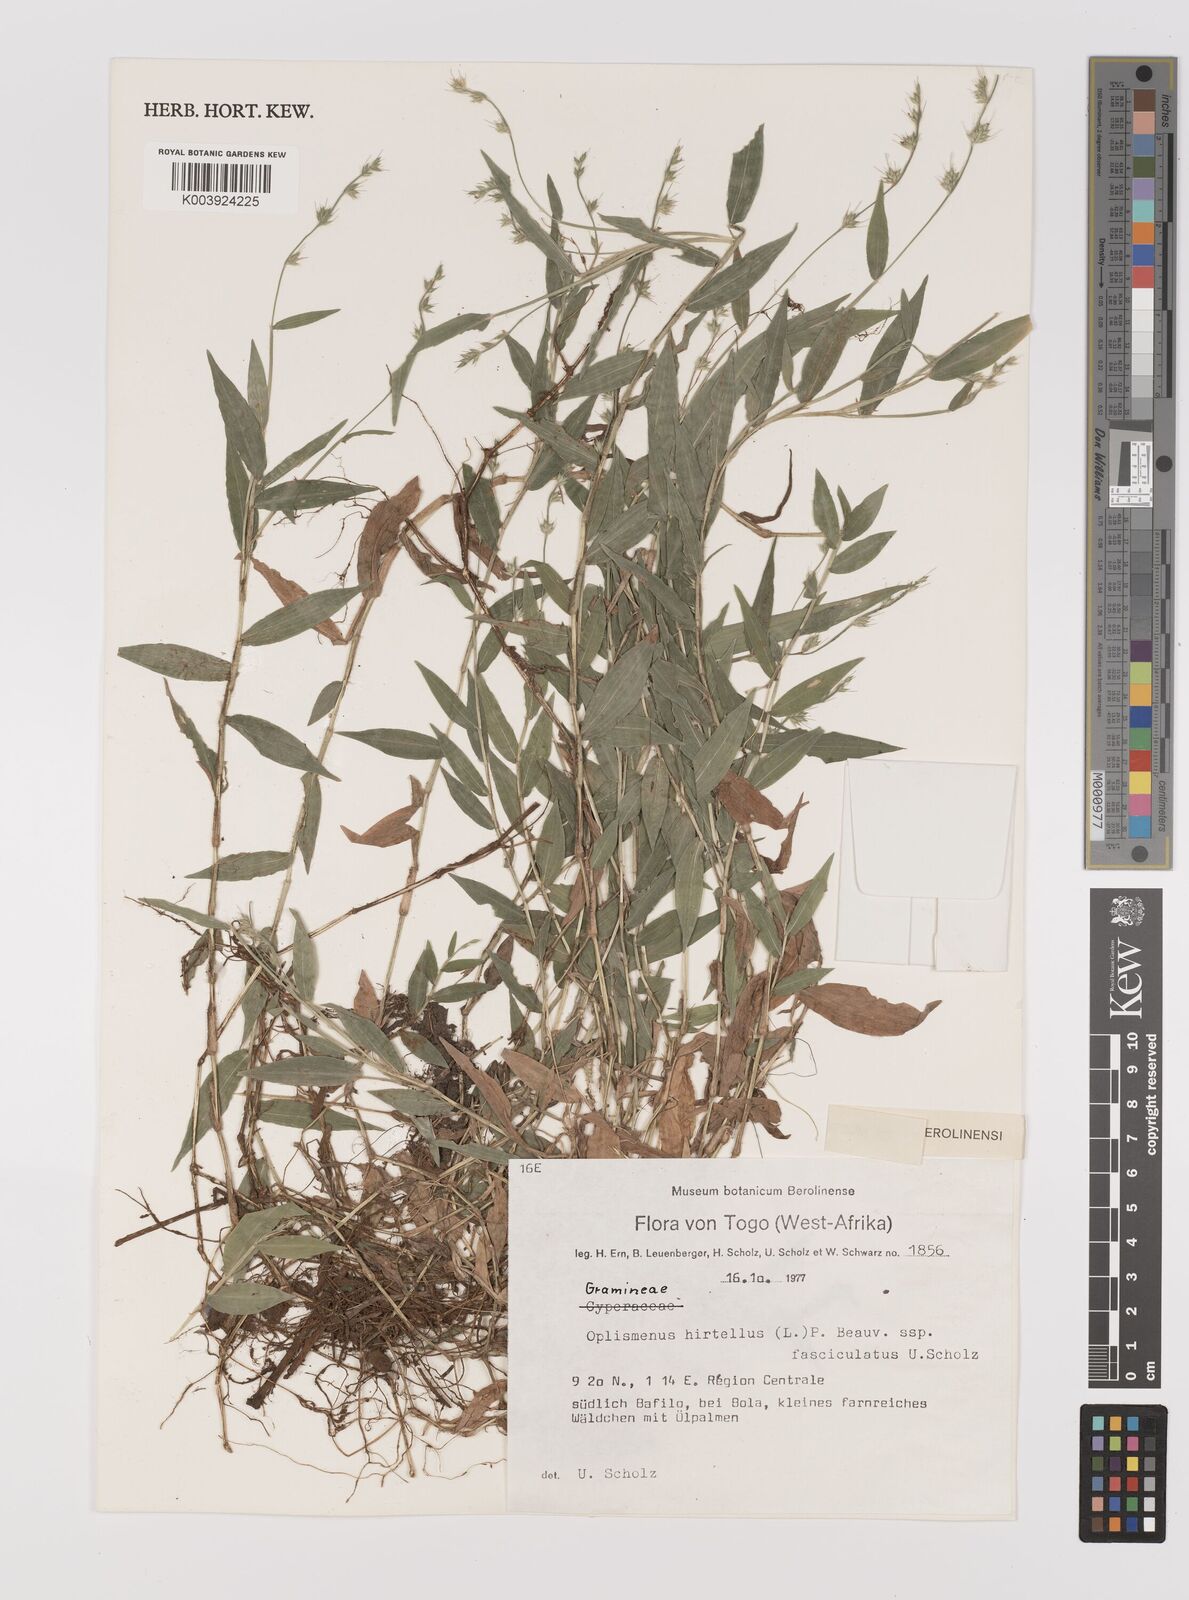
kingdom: Plantae
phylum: Tracheophyta
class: Liliopsida
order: Poales
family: Poaceae
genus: Oplismenus
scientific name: Oplismenus hirtellus
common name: Basketgrass
